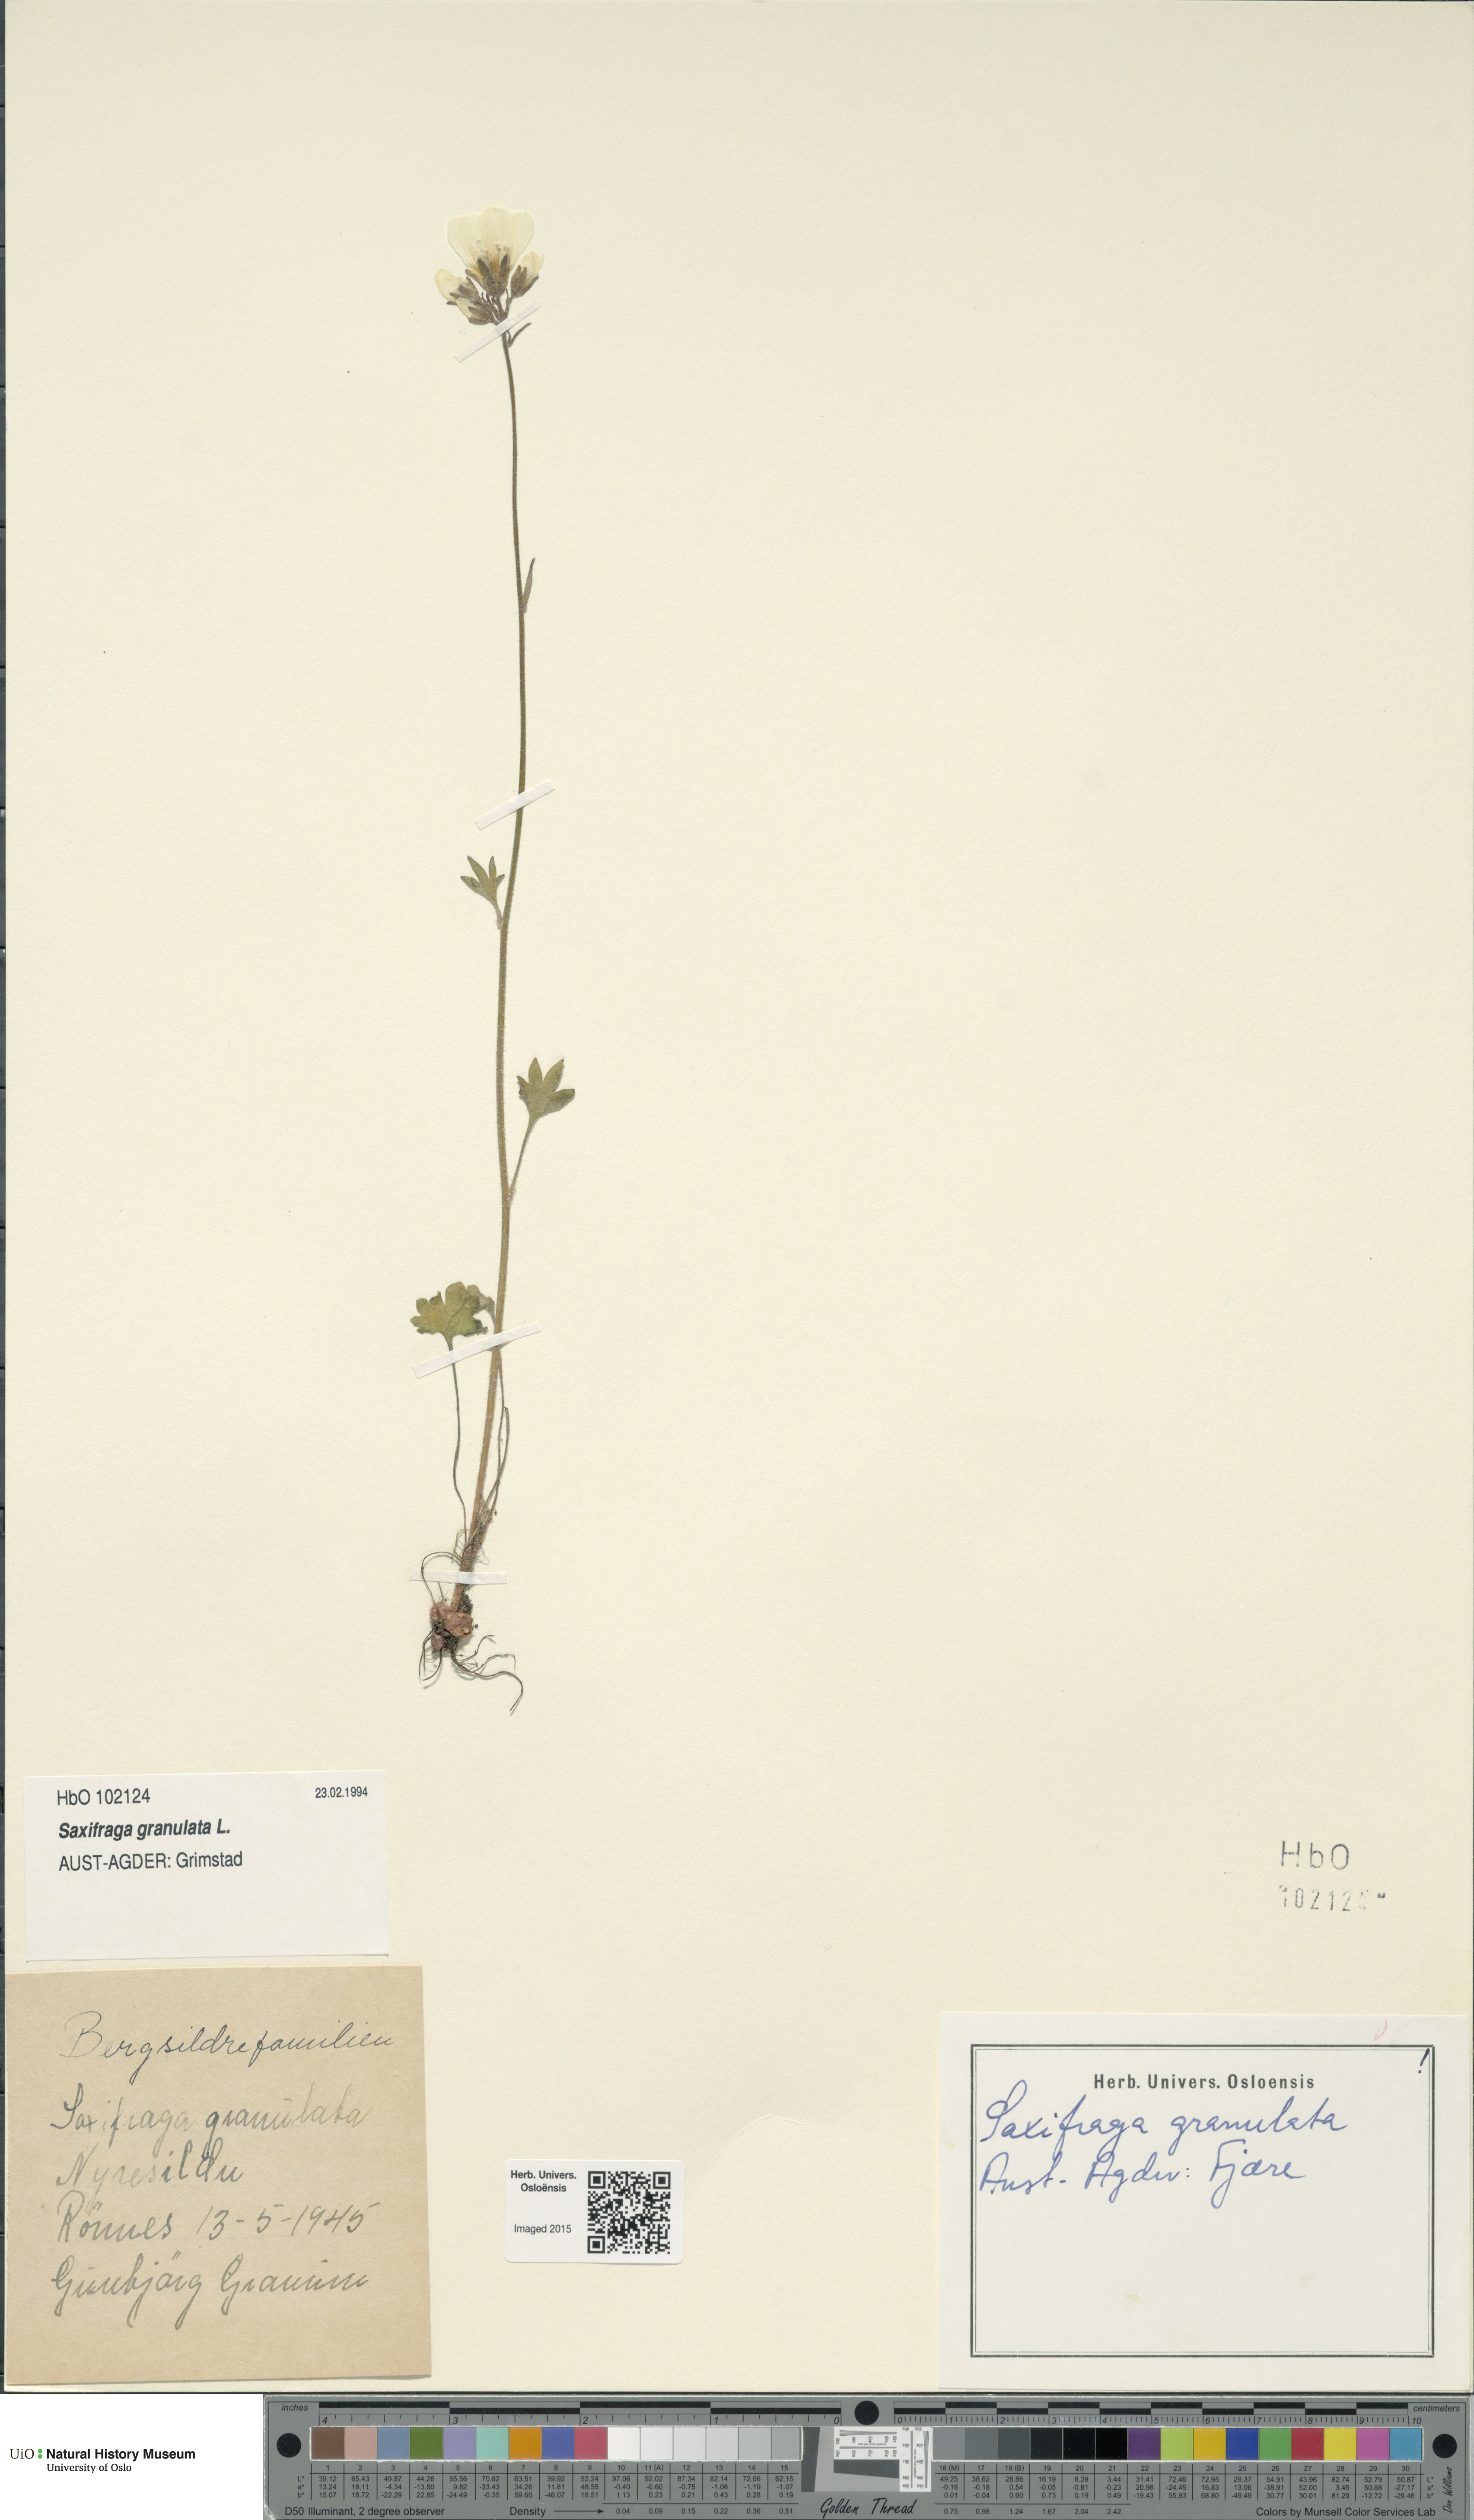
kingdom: Plantae
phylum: Tracheophyta
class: Magnoliopsida
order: Saxifragales
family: Saxifragaceae
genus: Saxifraga
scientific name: Saxifraga granulata
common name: Meadow saxifrage
